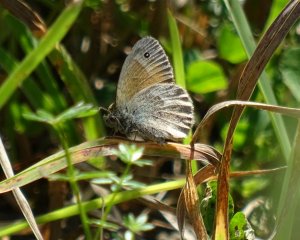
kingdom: Animalia
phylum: Arthropoda
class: Insecta
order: Lepidoptera
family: Nymphalidae
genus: Coenonympha
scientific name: Coenonympha tullia
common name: Large Heath
